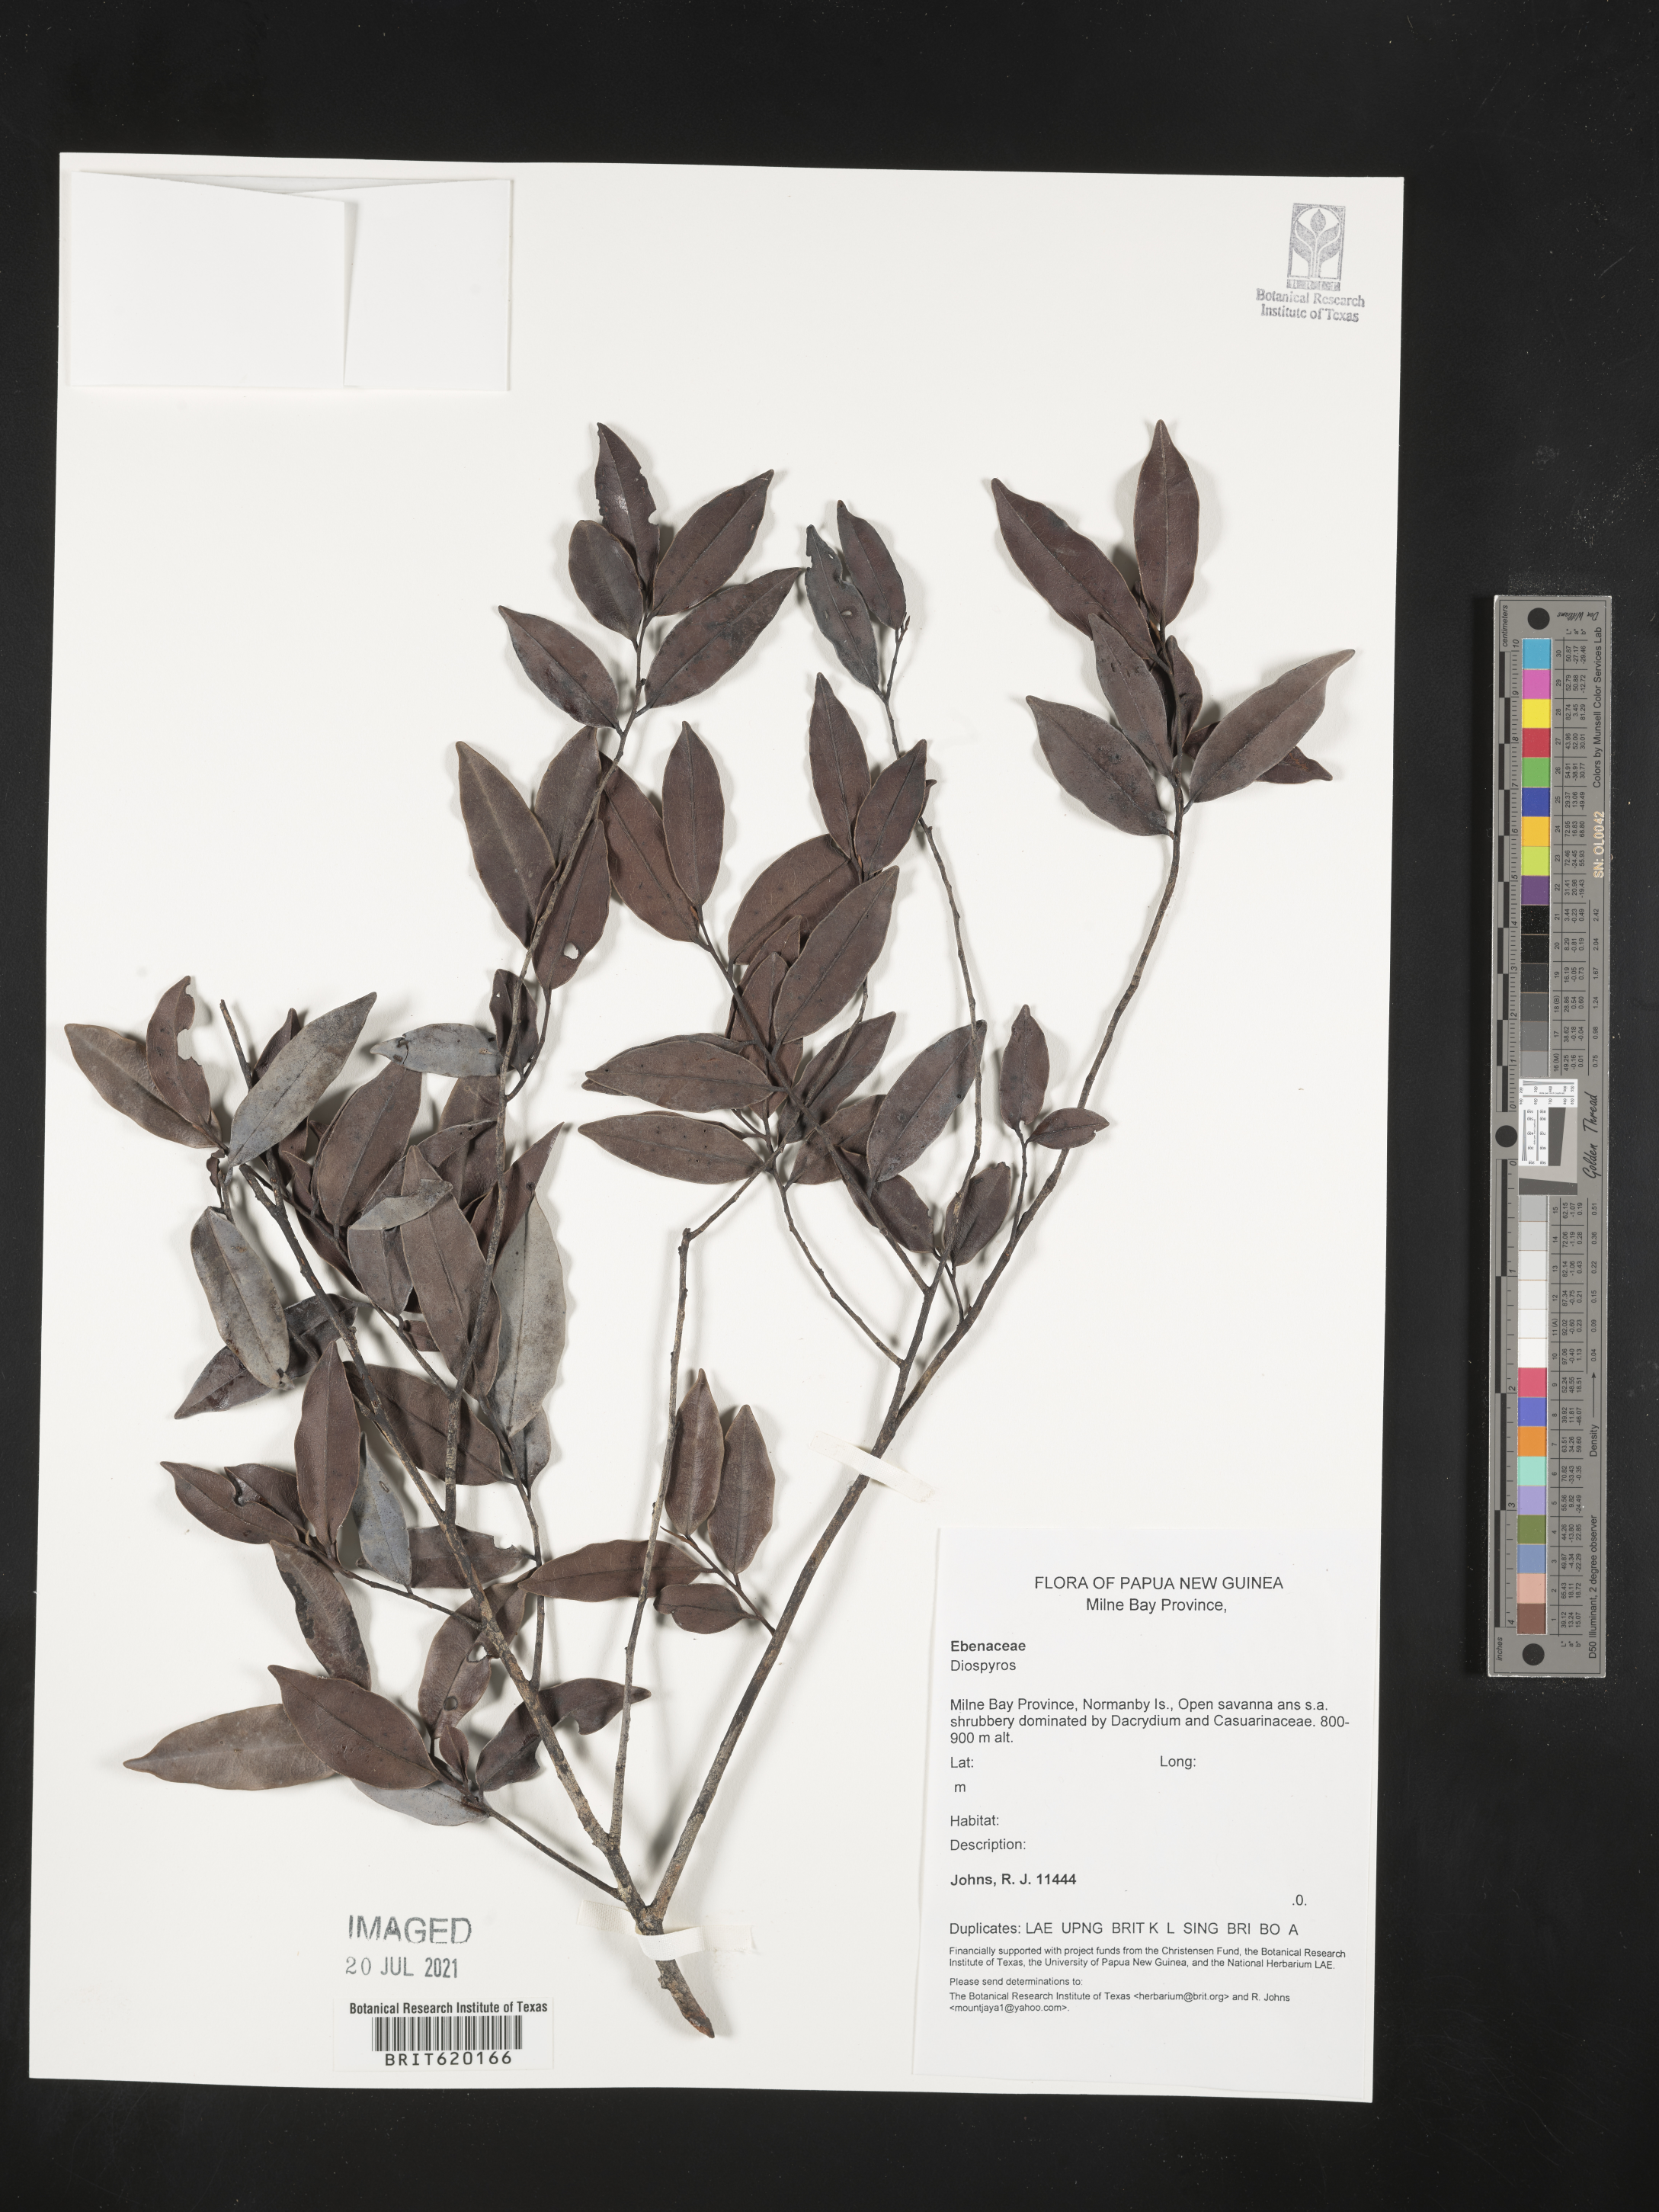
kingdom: Plantae
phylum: Tracheophyta
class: Magnoliopsida
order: Ericales
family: Ebenaceae
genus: Diospyros
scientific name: Diospyros
